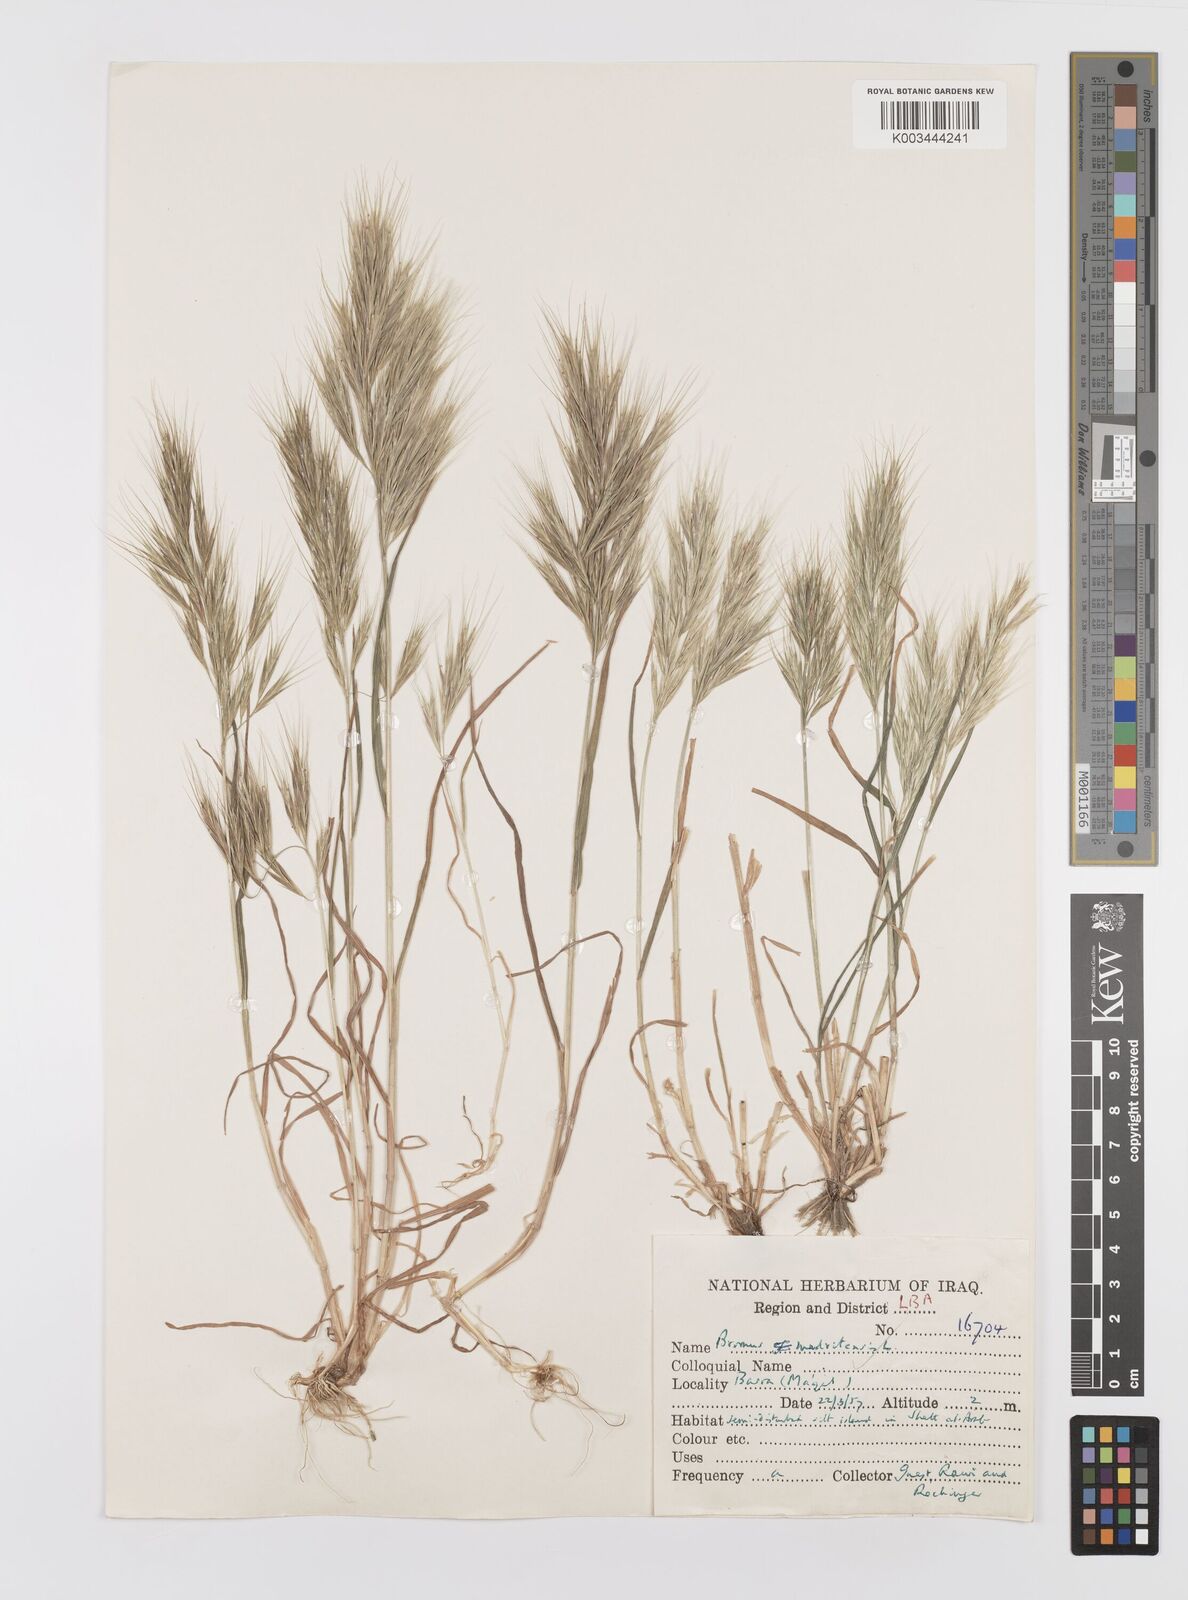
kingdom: Plantae
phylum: Tracheophyta
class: Liliopsida
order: Poales
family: Poaceae
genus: Bromus
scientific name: Bromus madritensis
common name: Compact brome
